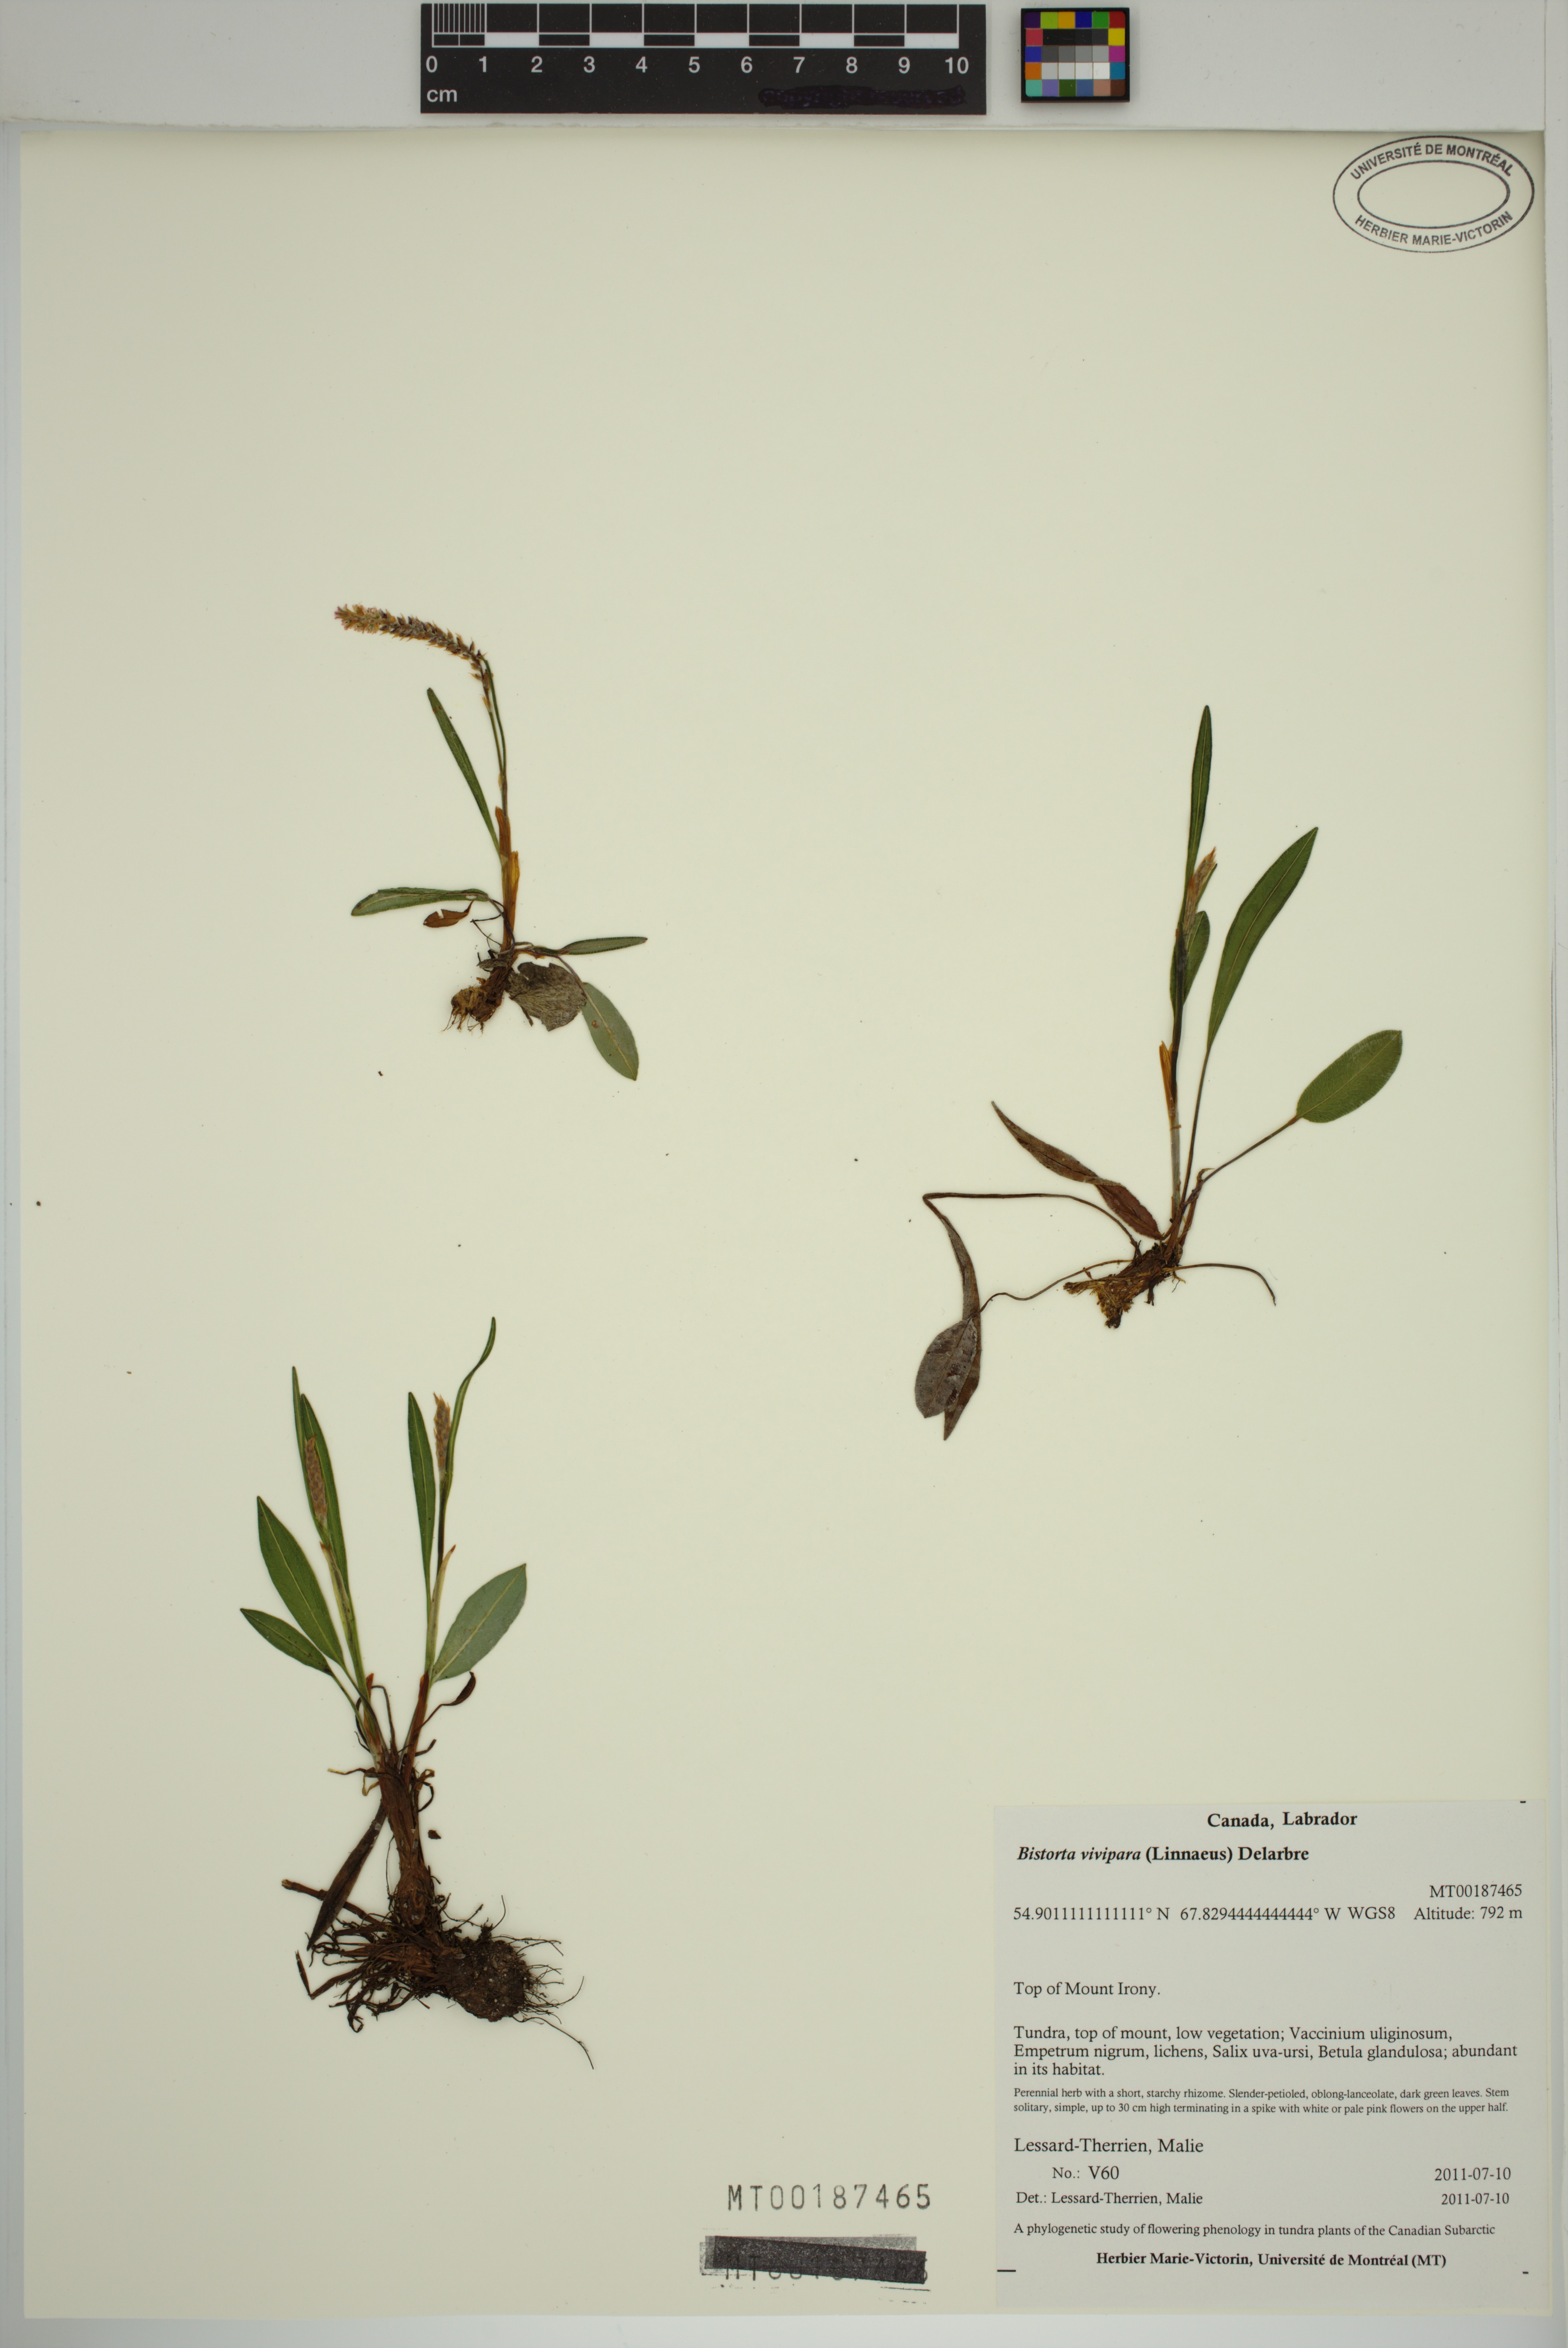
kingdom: Plantae
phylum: Tracheophyta
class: Magnoliopsida
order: Caryophyllales
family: Polygonaceae
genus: Bistorta
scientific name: Bistorta vivipara
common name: Alpine bistort
